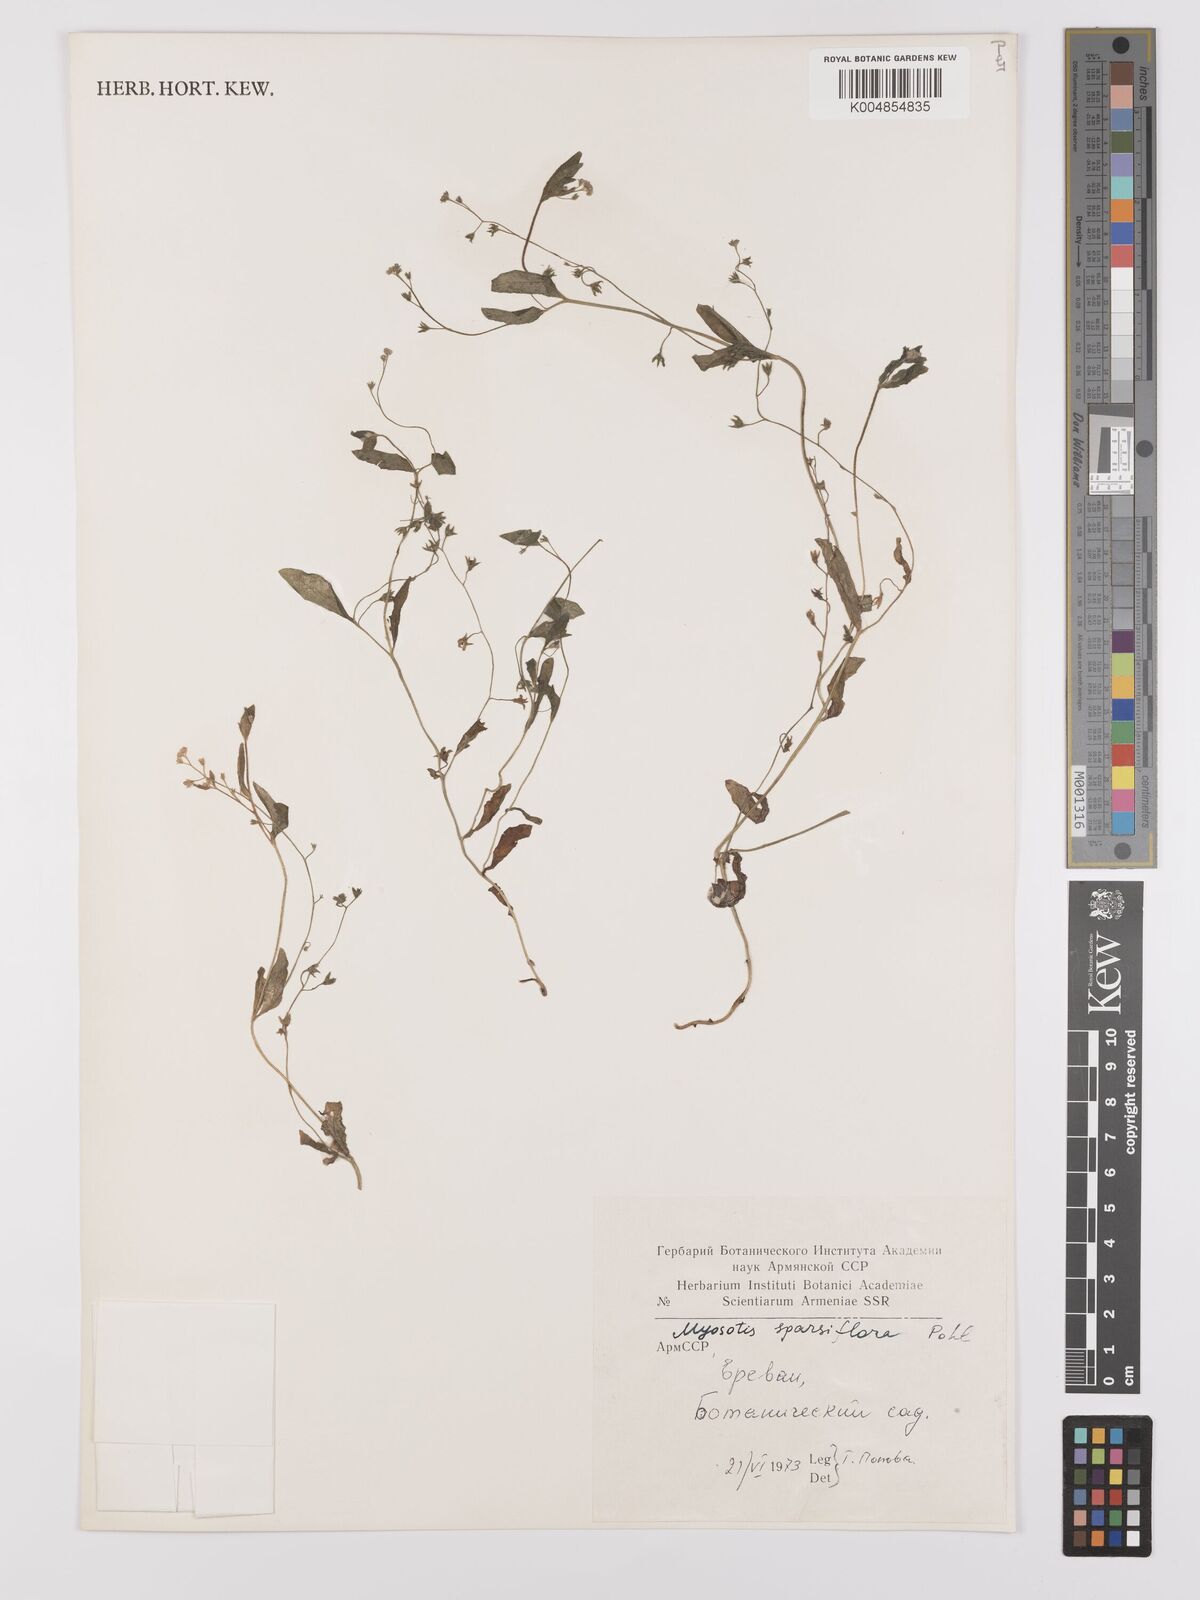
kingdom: Plantae
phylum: Tracheophyta
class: Magnoliopsida
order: Boraginales
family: Boraginaceae
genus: Myosotis
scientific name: Myosotis
